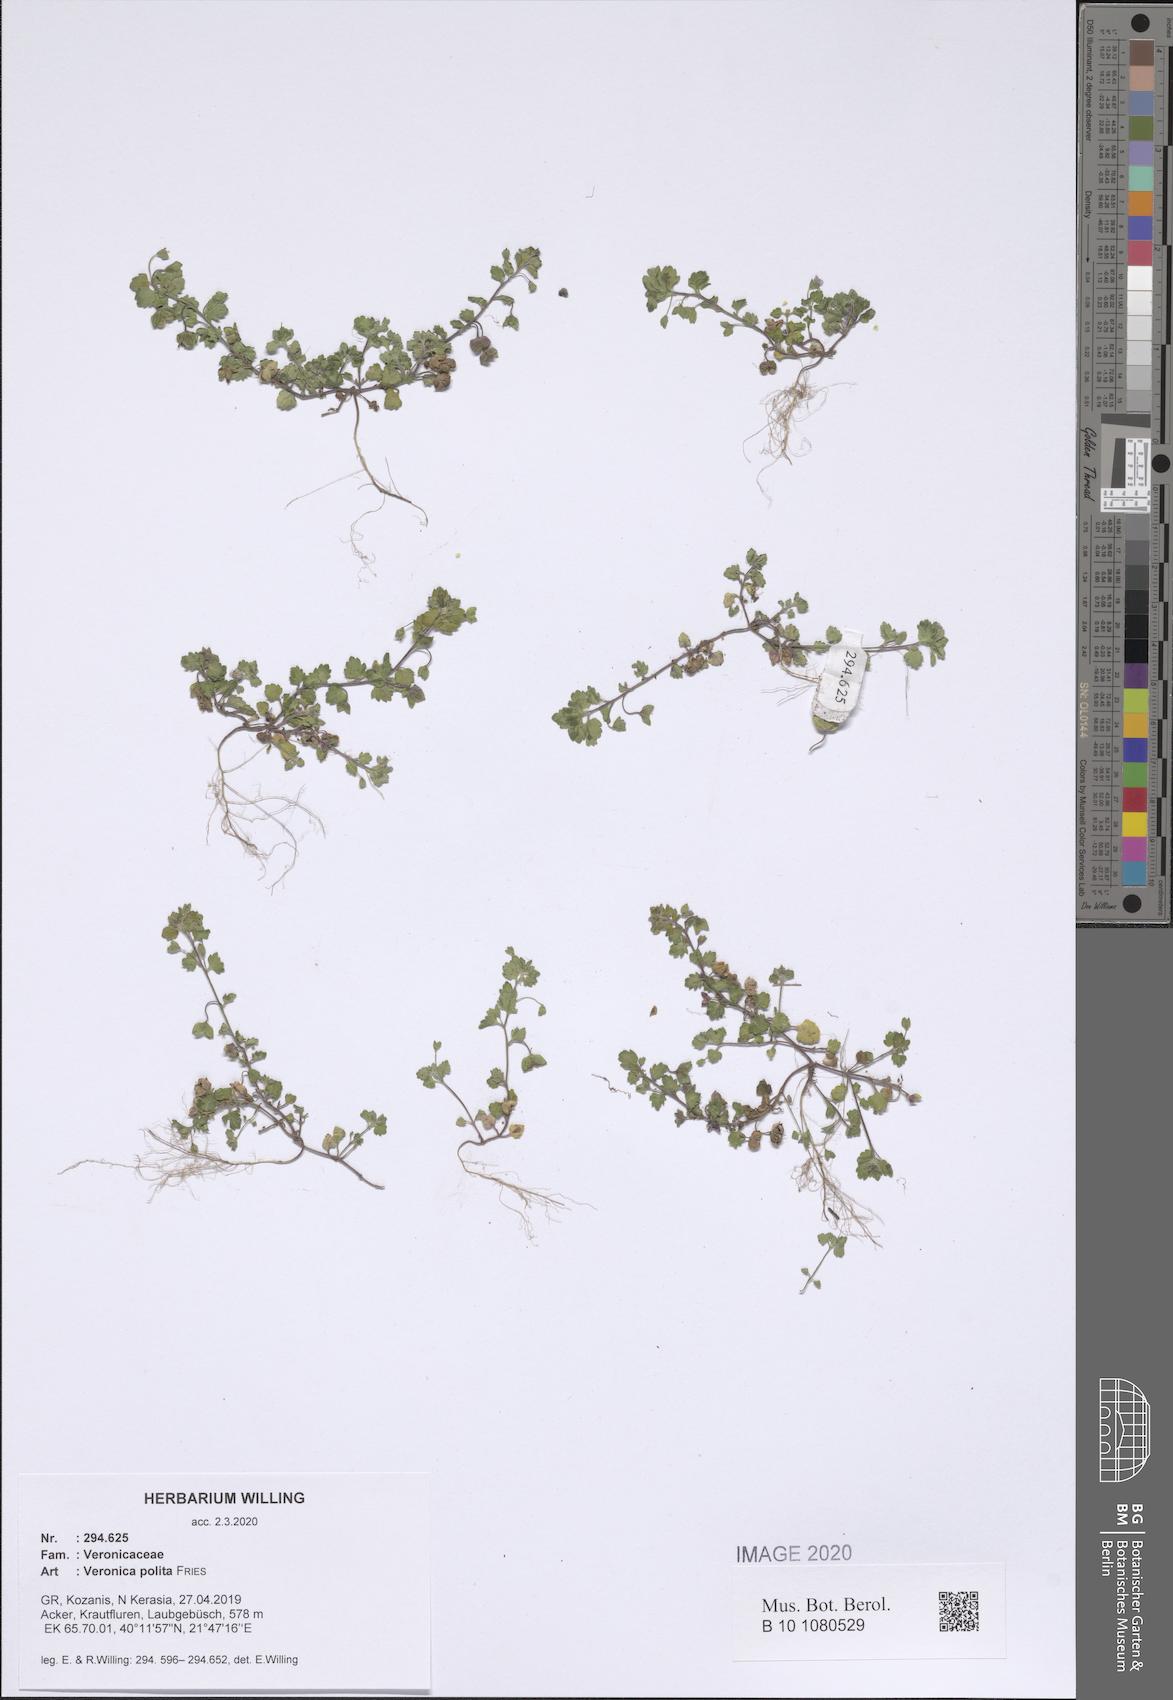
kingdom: Plantae
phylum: Tracheophyta
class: Magnoliopsida
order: Lamiales
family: Plantaginaceae
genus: Veronica
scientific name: Veronica polita
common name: Grey field-speedwell
